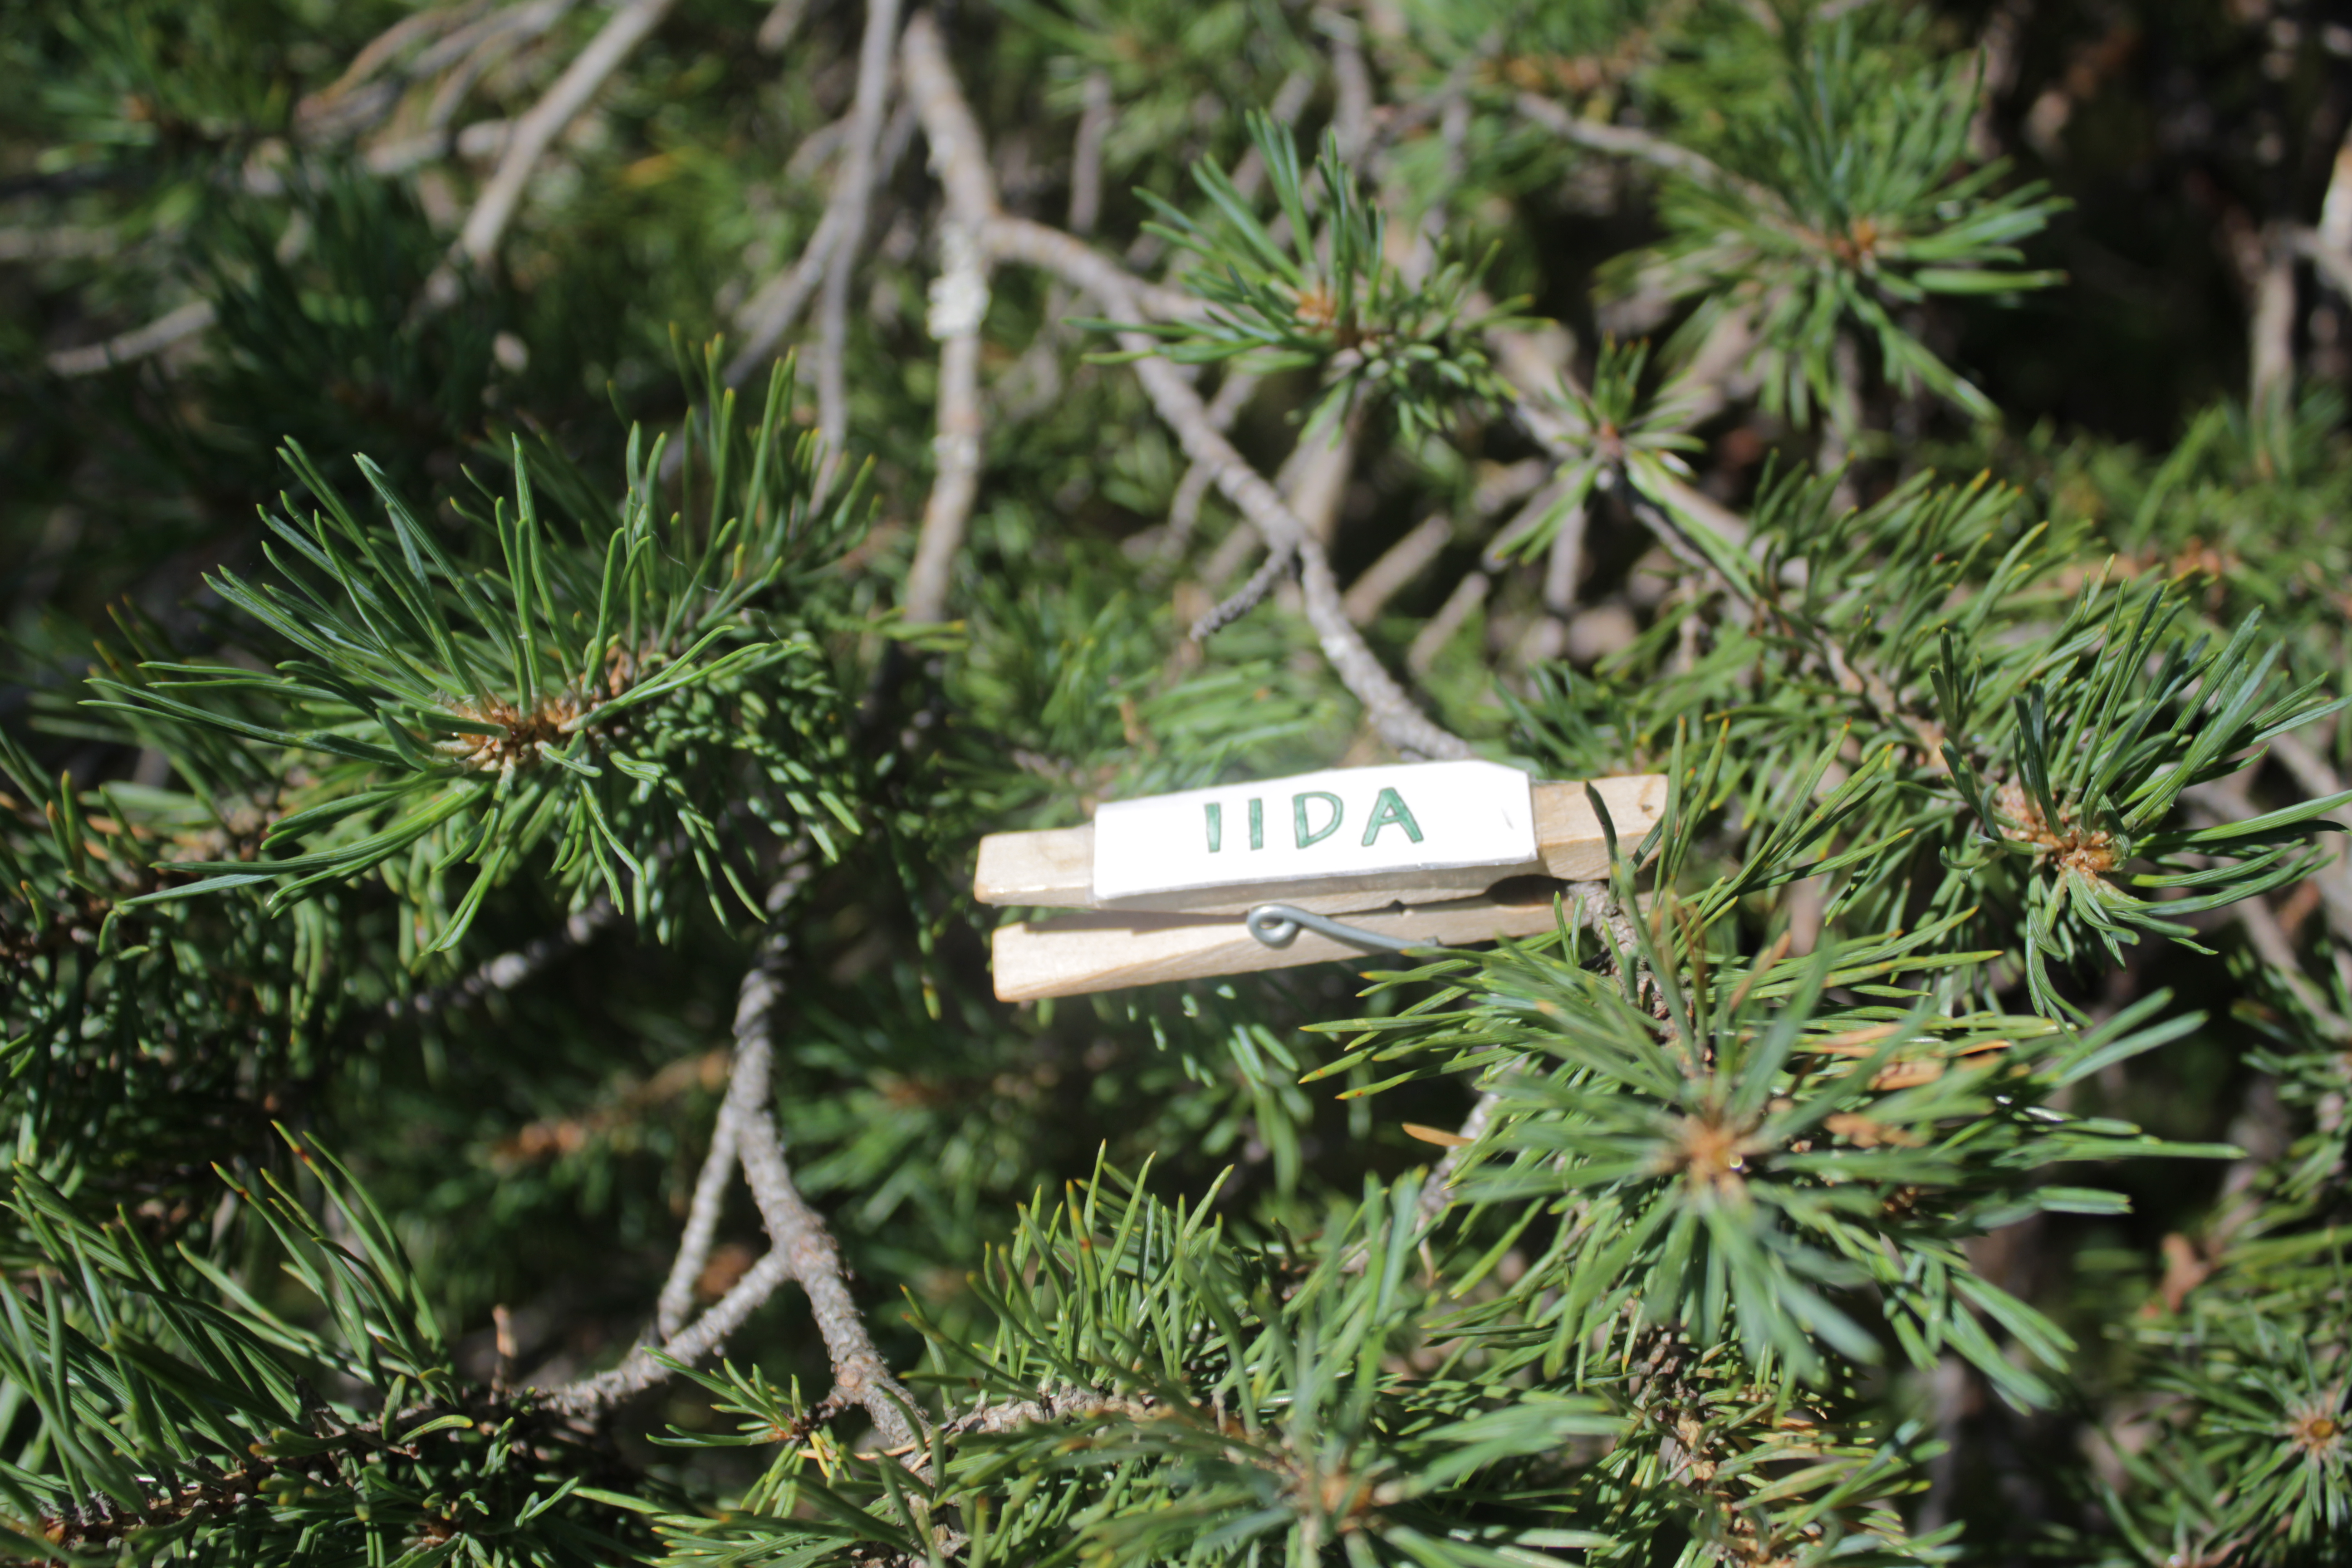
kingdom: Plantae
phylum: Tracheophyta
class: Pinopsida
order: Pinales
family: Pinaceae
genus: Pinus
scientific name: Pinus sylvestris
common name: Scots pine
